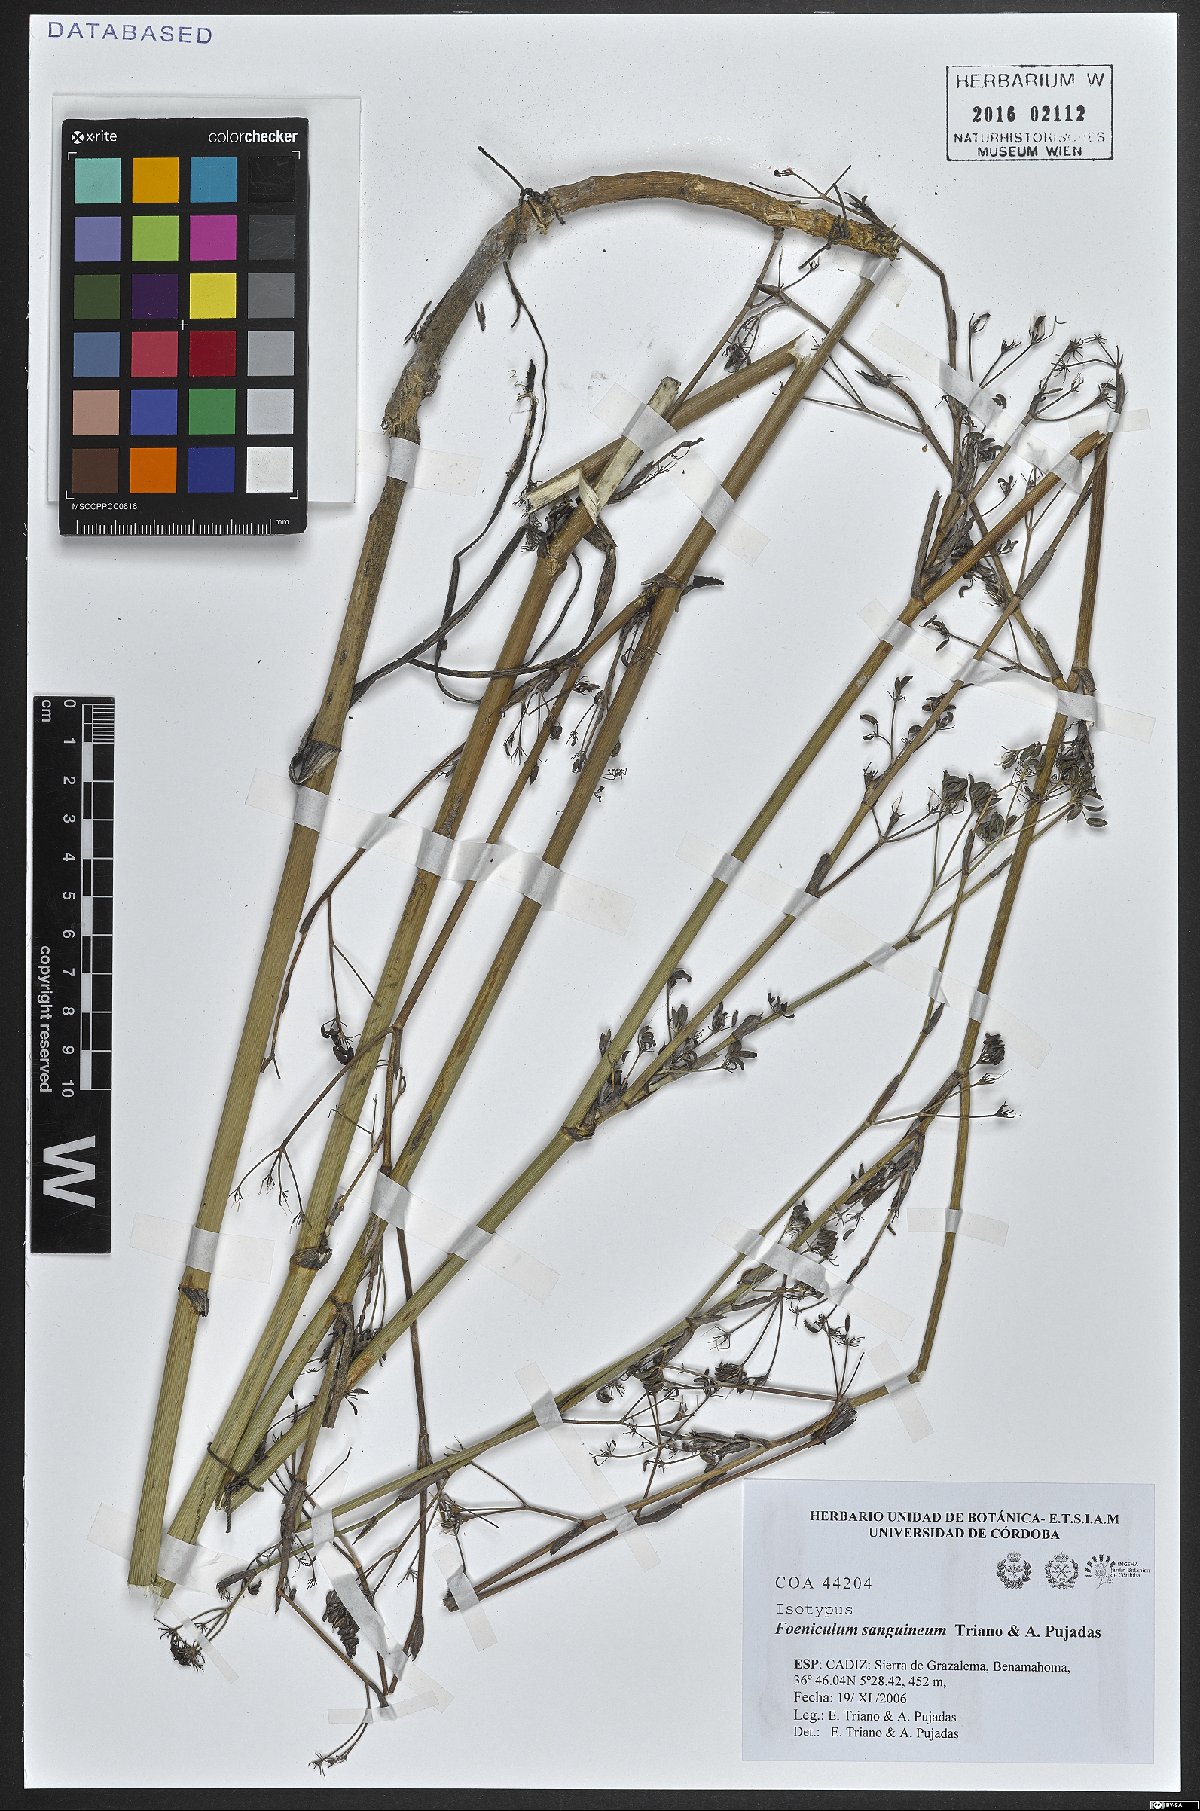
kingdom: Plantae
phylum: Tracheophyta
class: Magnoliopsida
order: Apiales
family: Apiaceae
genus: Anethum
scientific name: Anethum sanguineum
